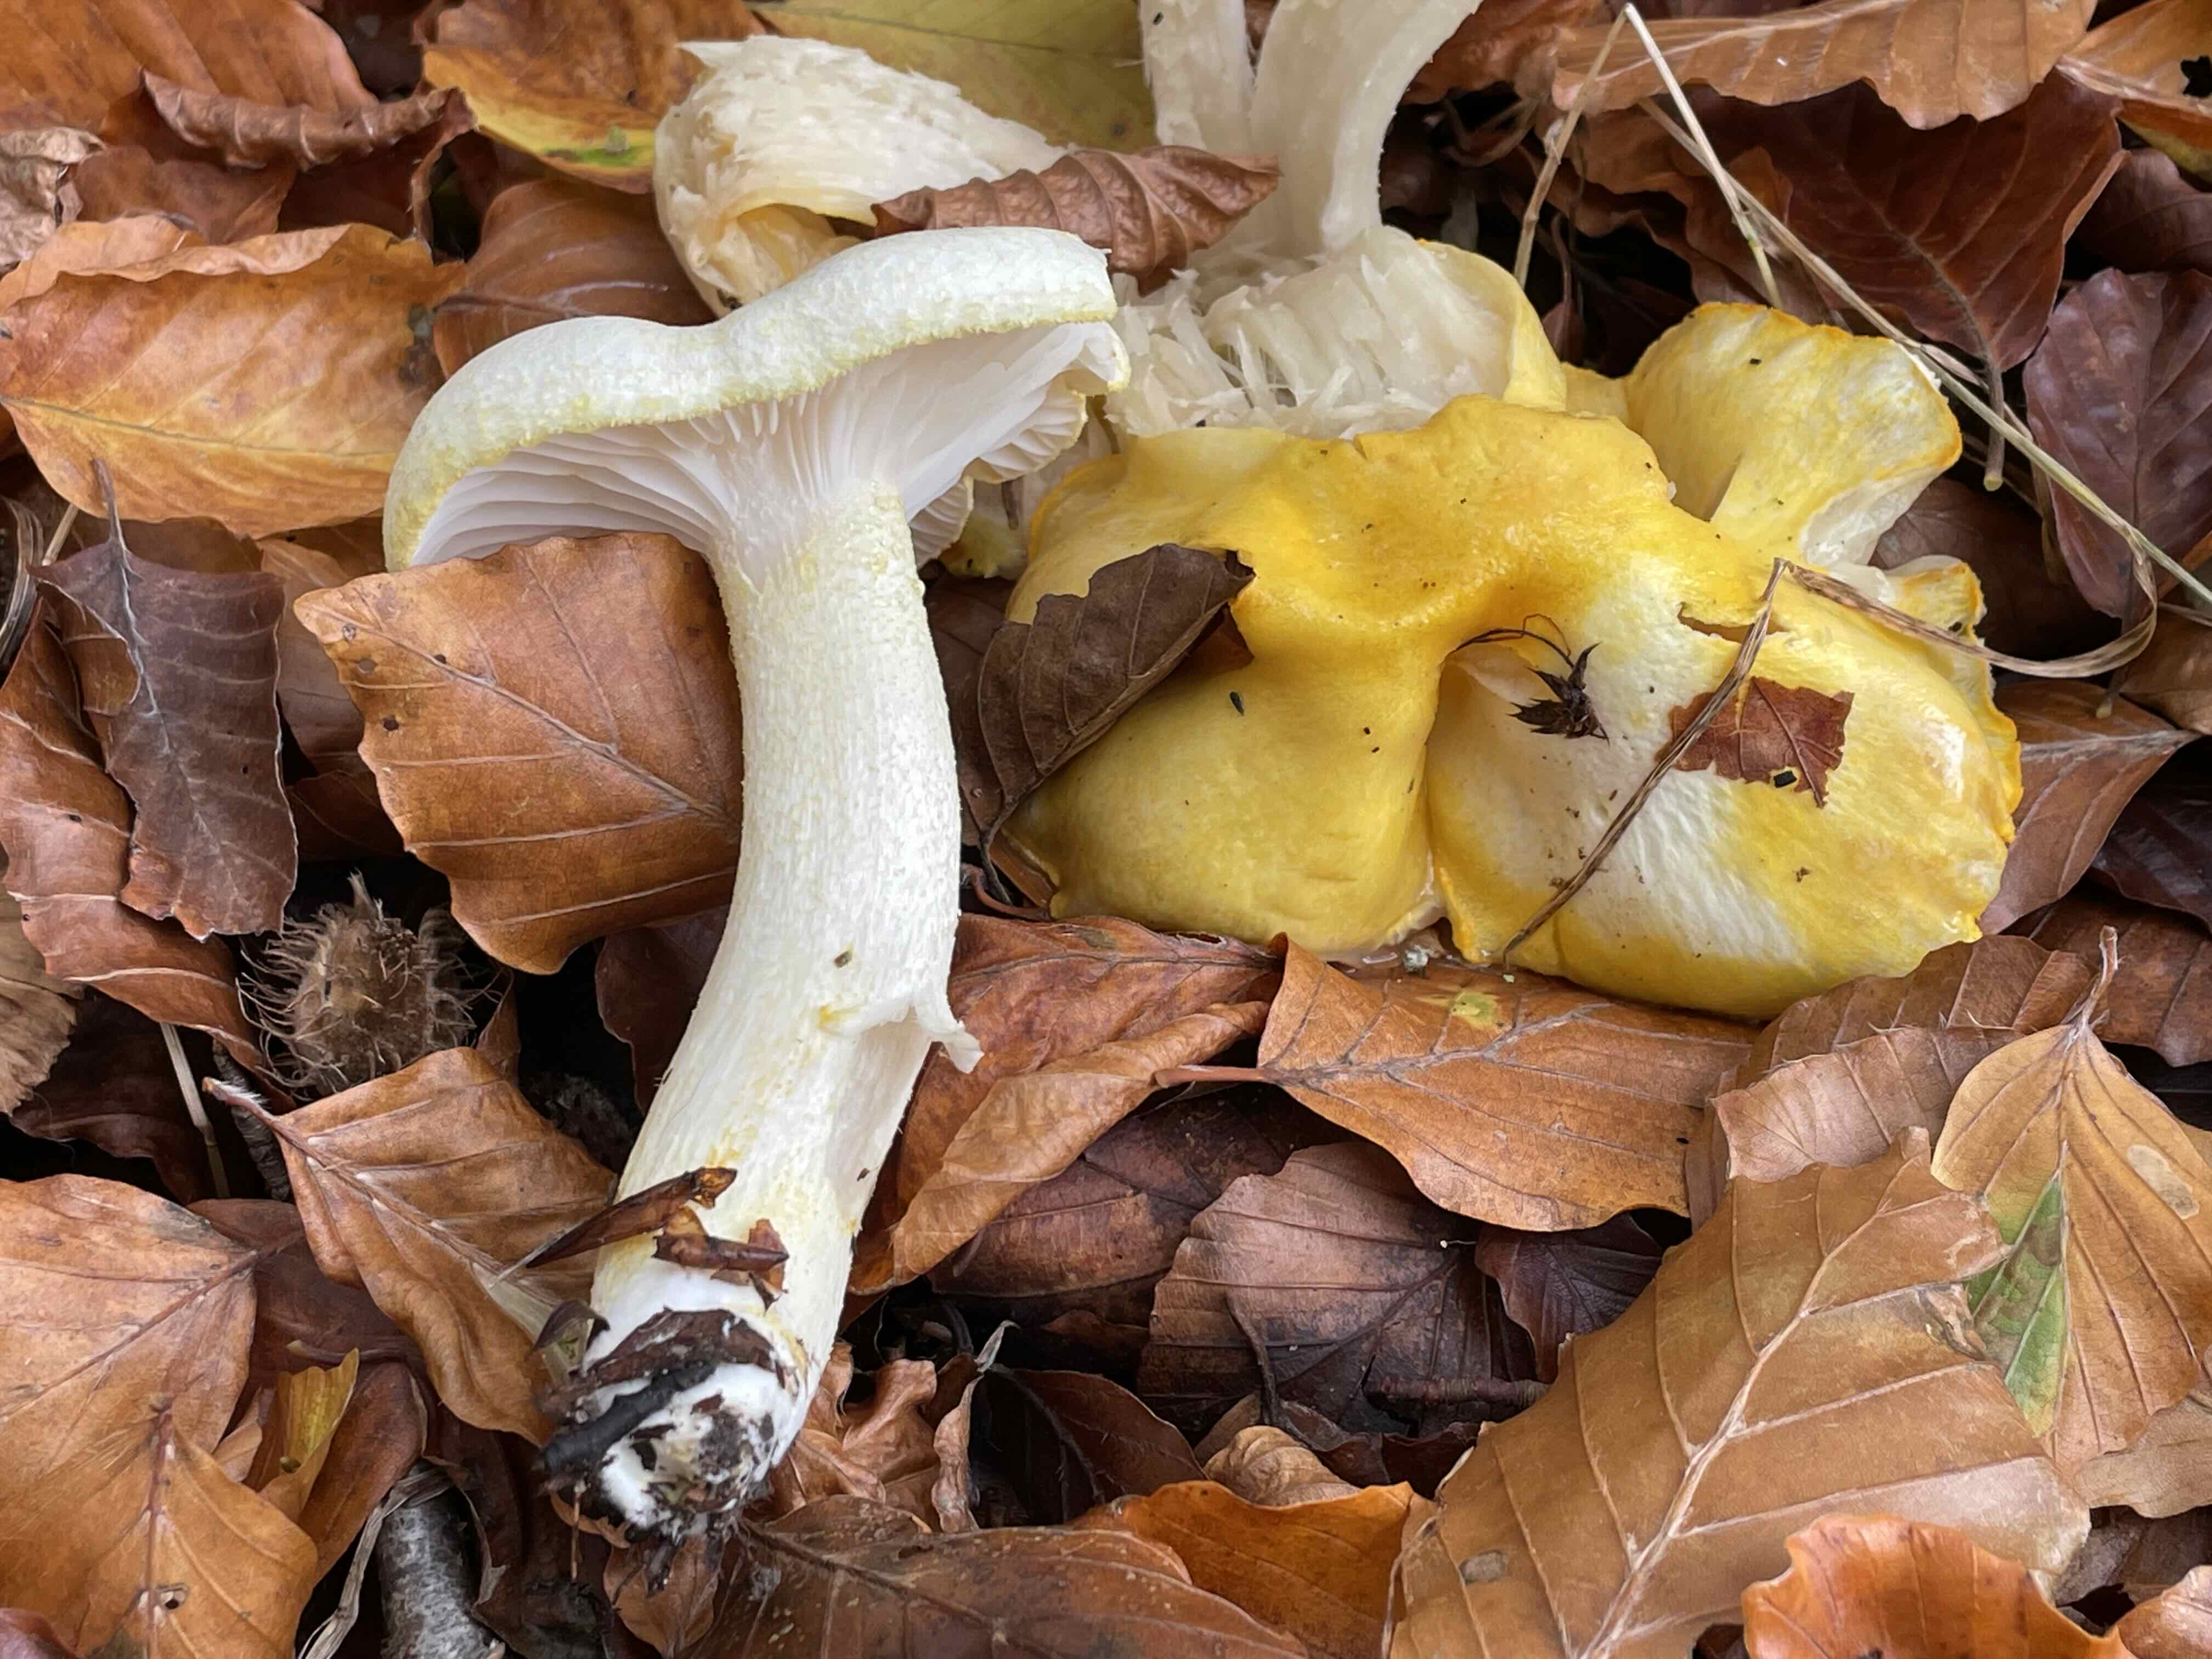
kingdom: Fungi
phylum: Basidiomycota
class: Agaricomycetes
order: Agaricales
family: Hygrophoraceae
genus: Hygrophorus
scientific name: Hygrophorus chrysodon
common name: gulfnugget sneglehat
